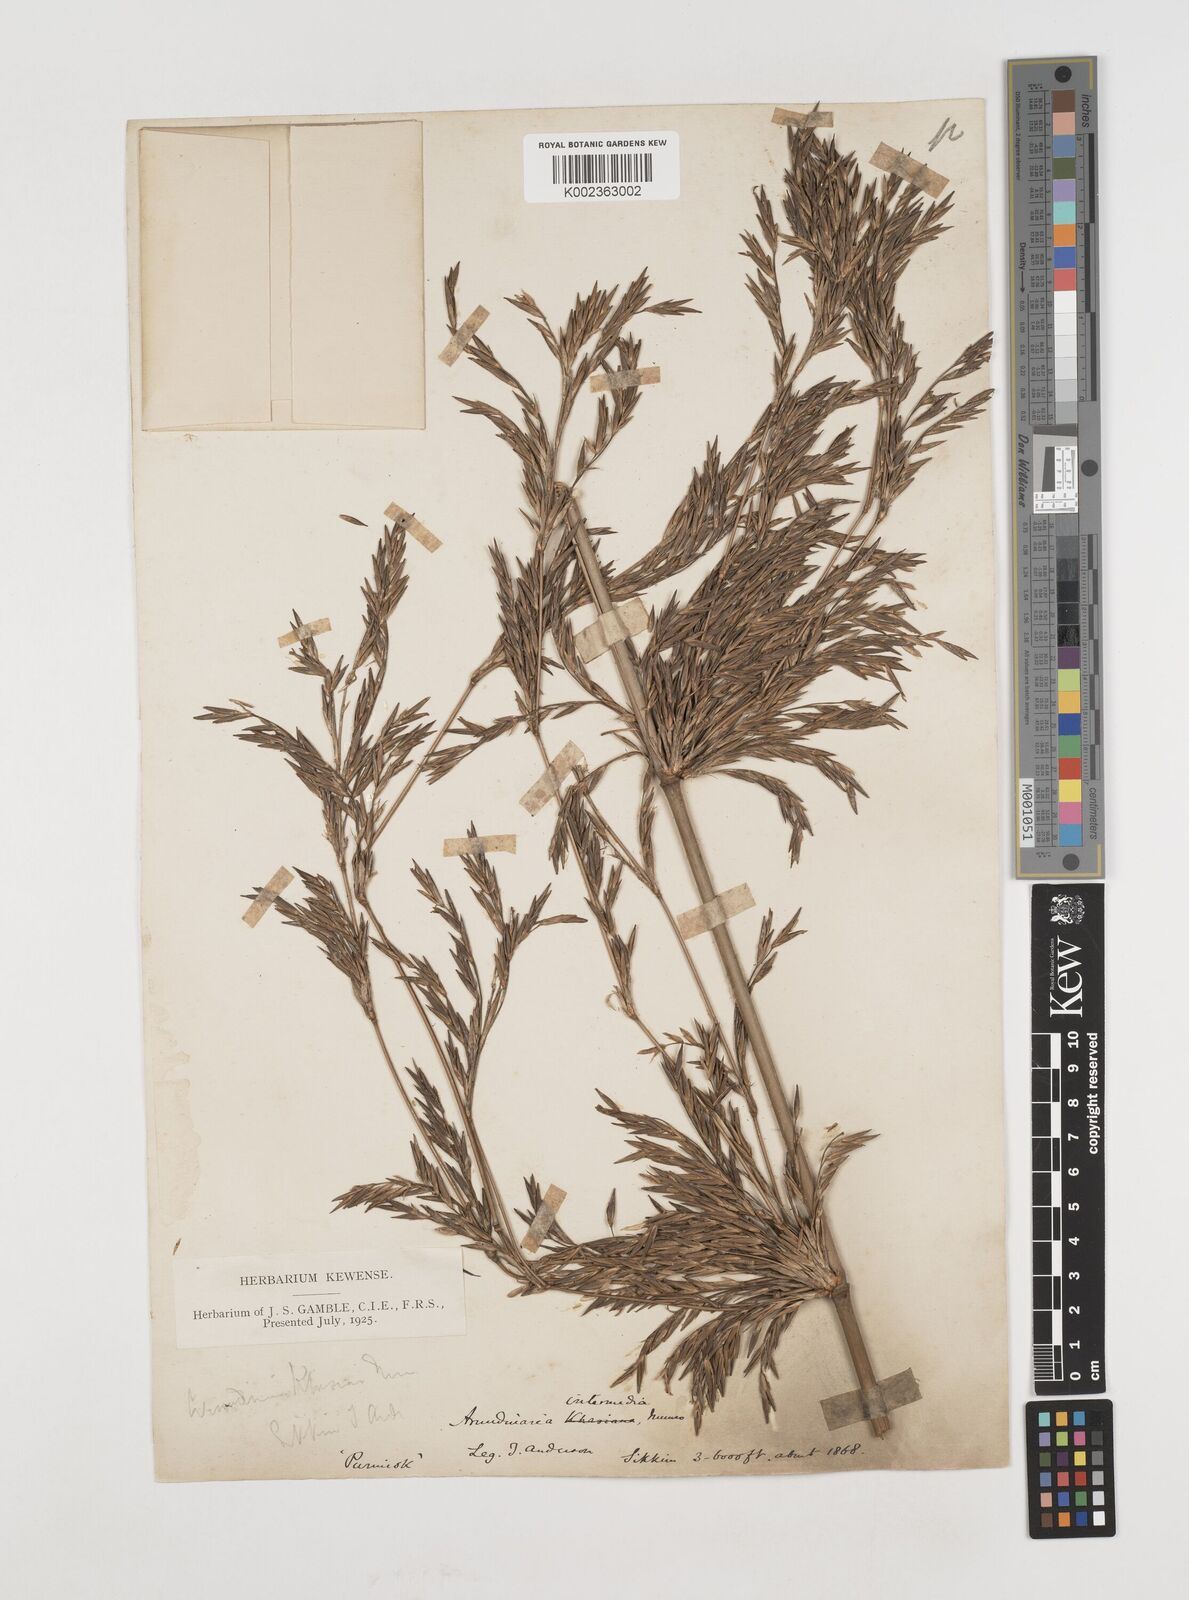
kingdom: Plantae
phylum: Tracheophyta
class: Liliopsida
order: Poales
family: Poaceae
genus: Drepanostachyum
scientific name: Drepanostachyum intermedium
